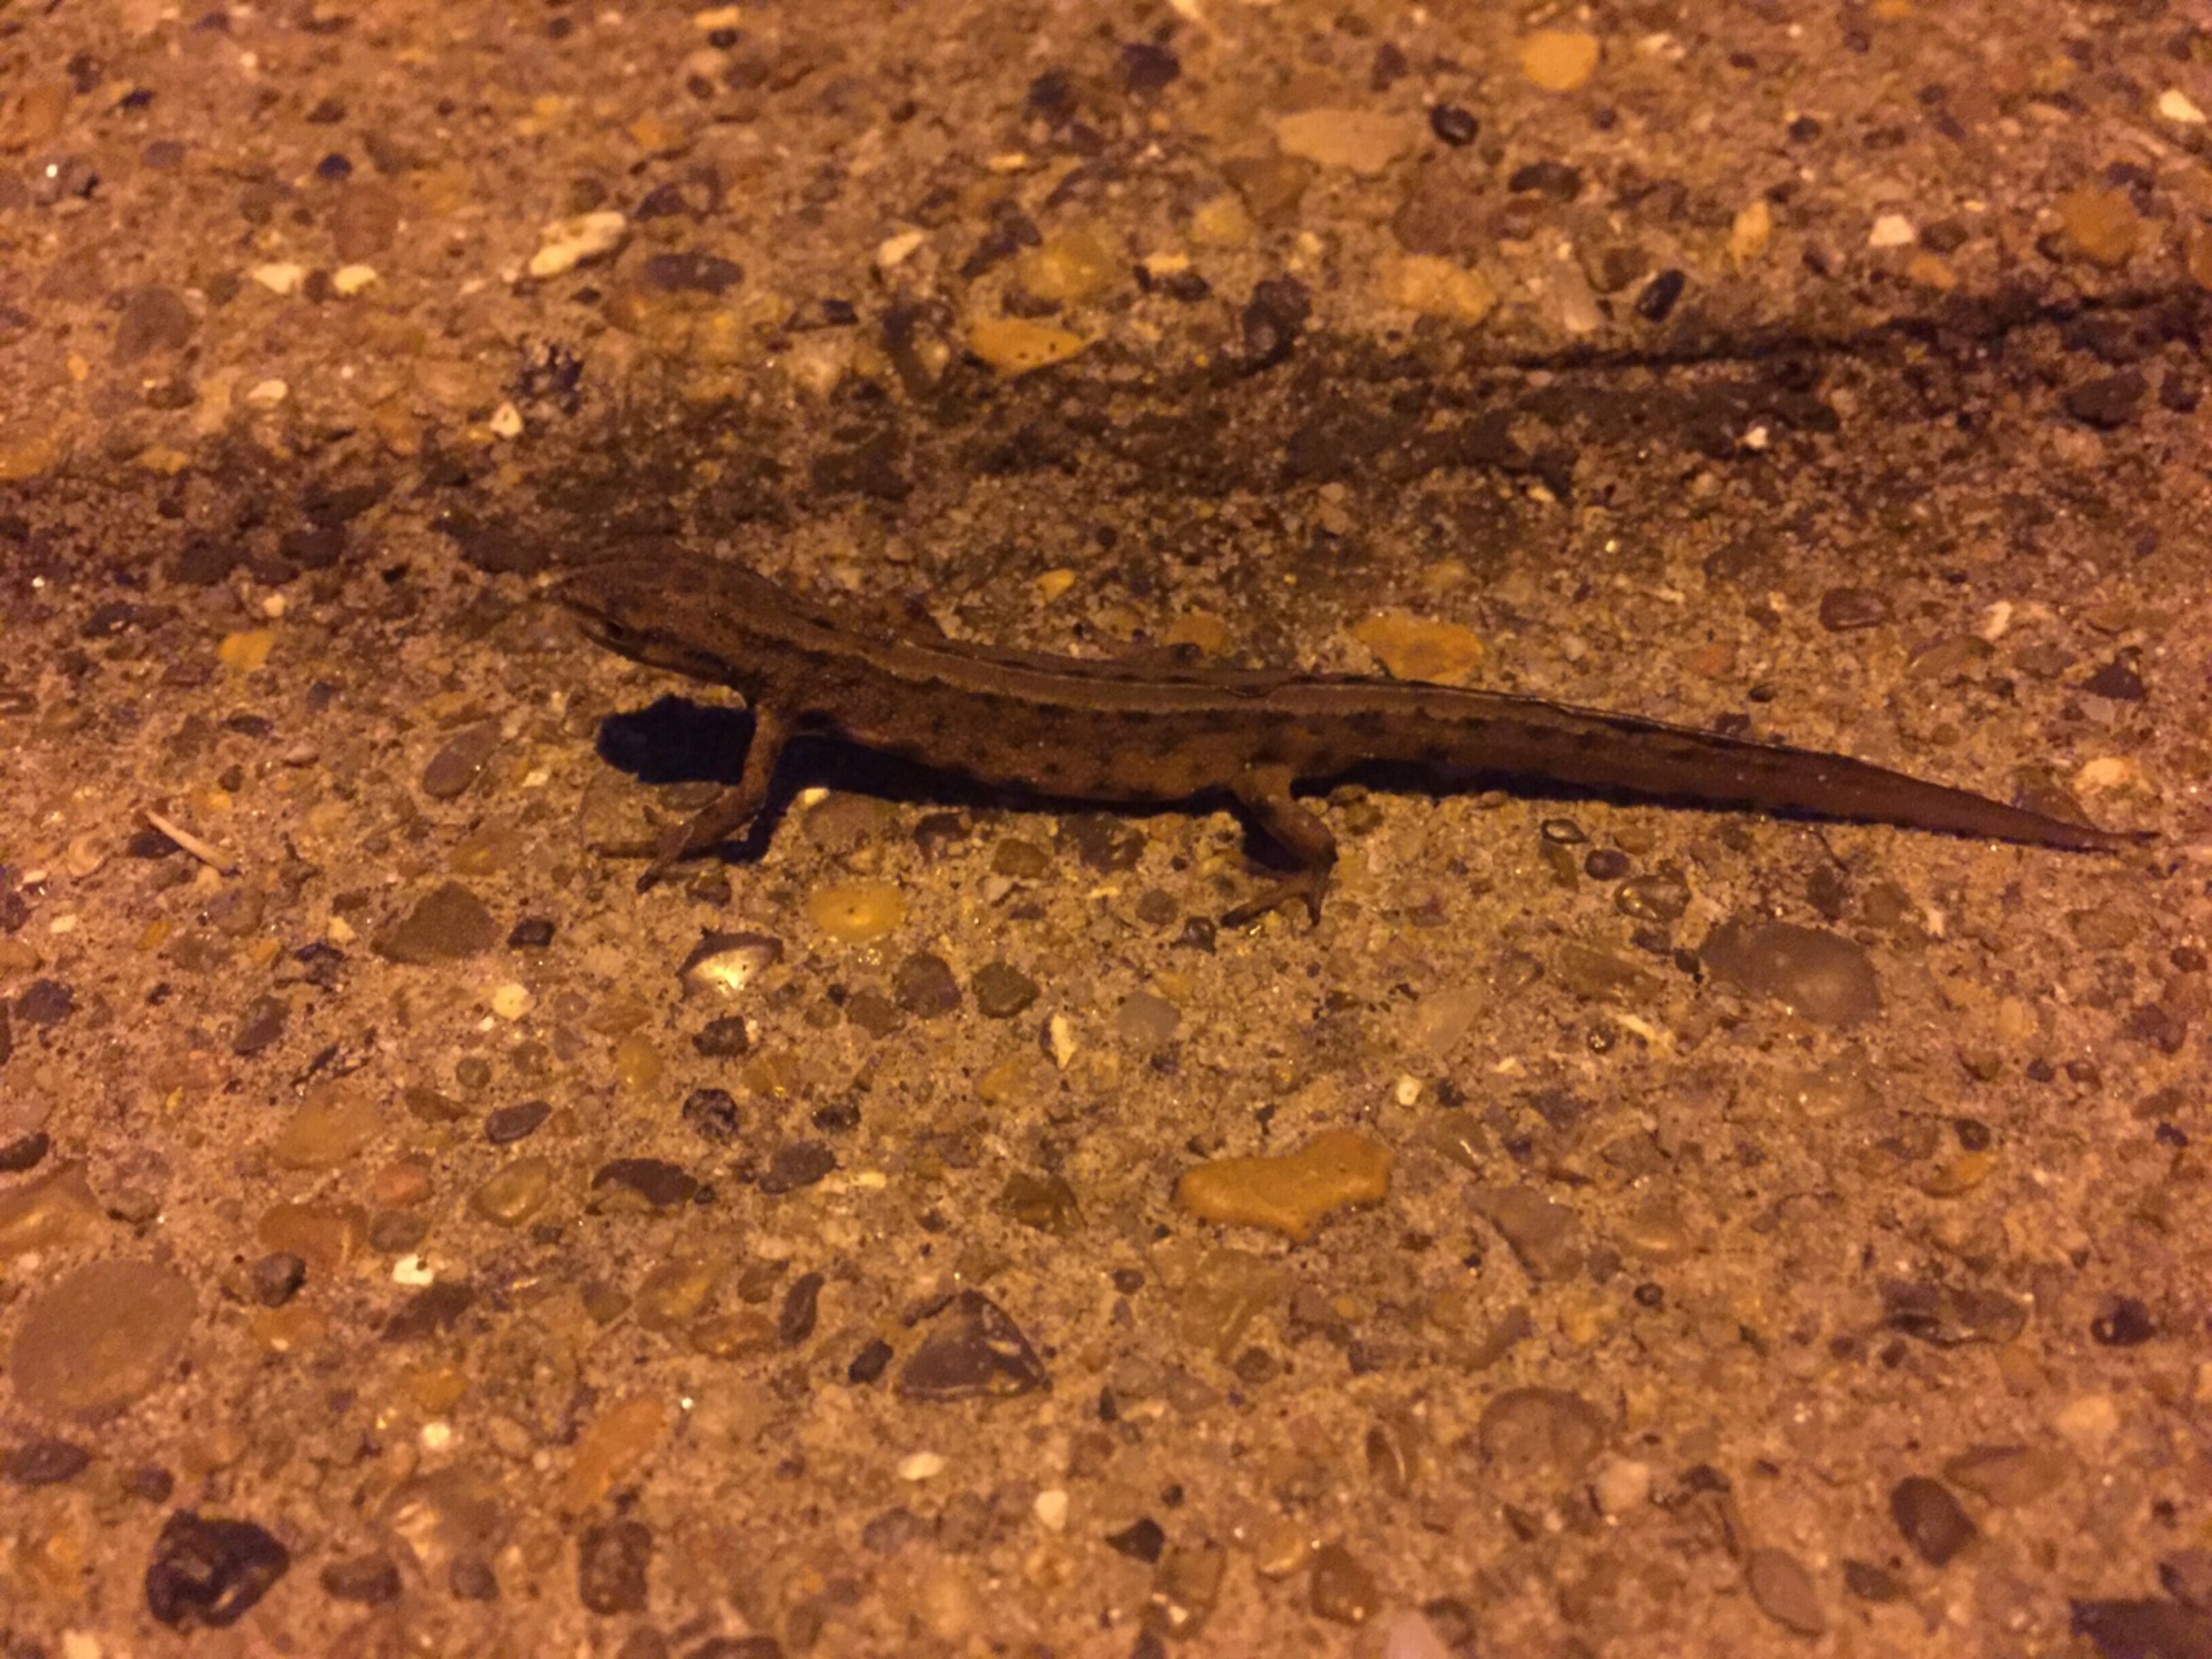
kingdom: Animalia
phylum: Chordata
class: Amphibia
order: Caudata
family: Salamandridae
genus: Lissotriton
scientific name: Lissotriton vulgaris
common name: Lille vandsalamander
